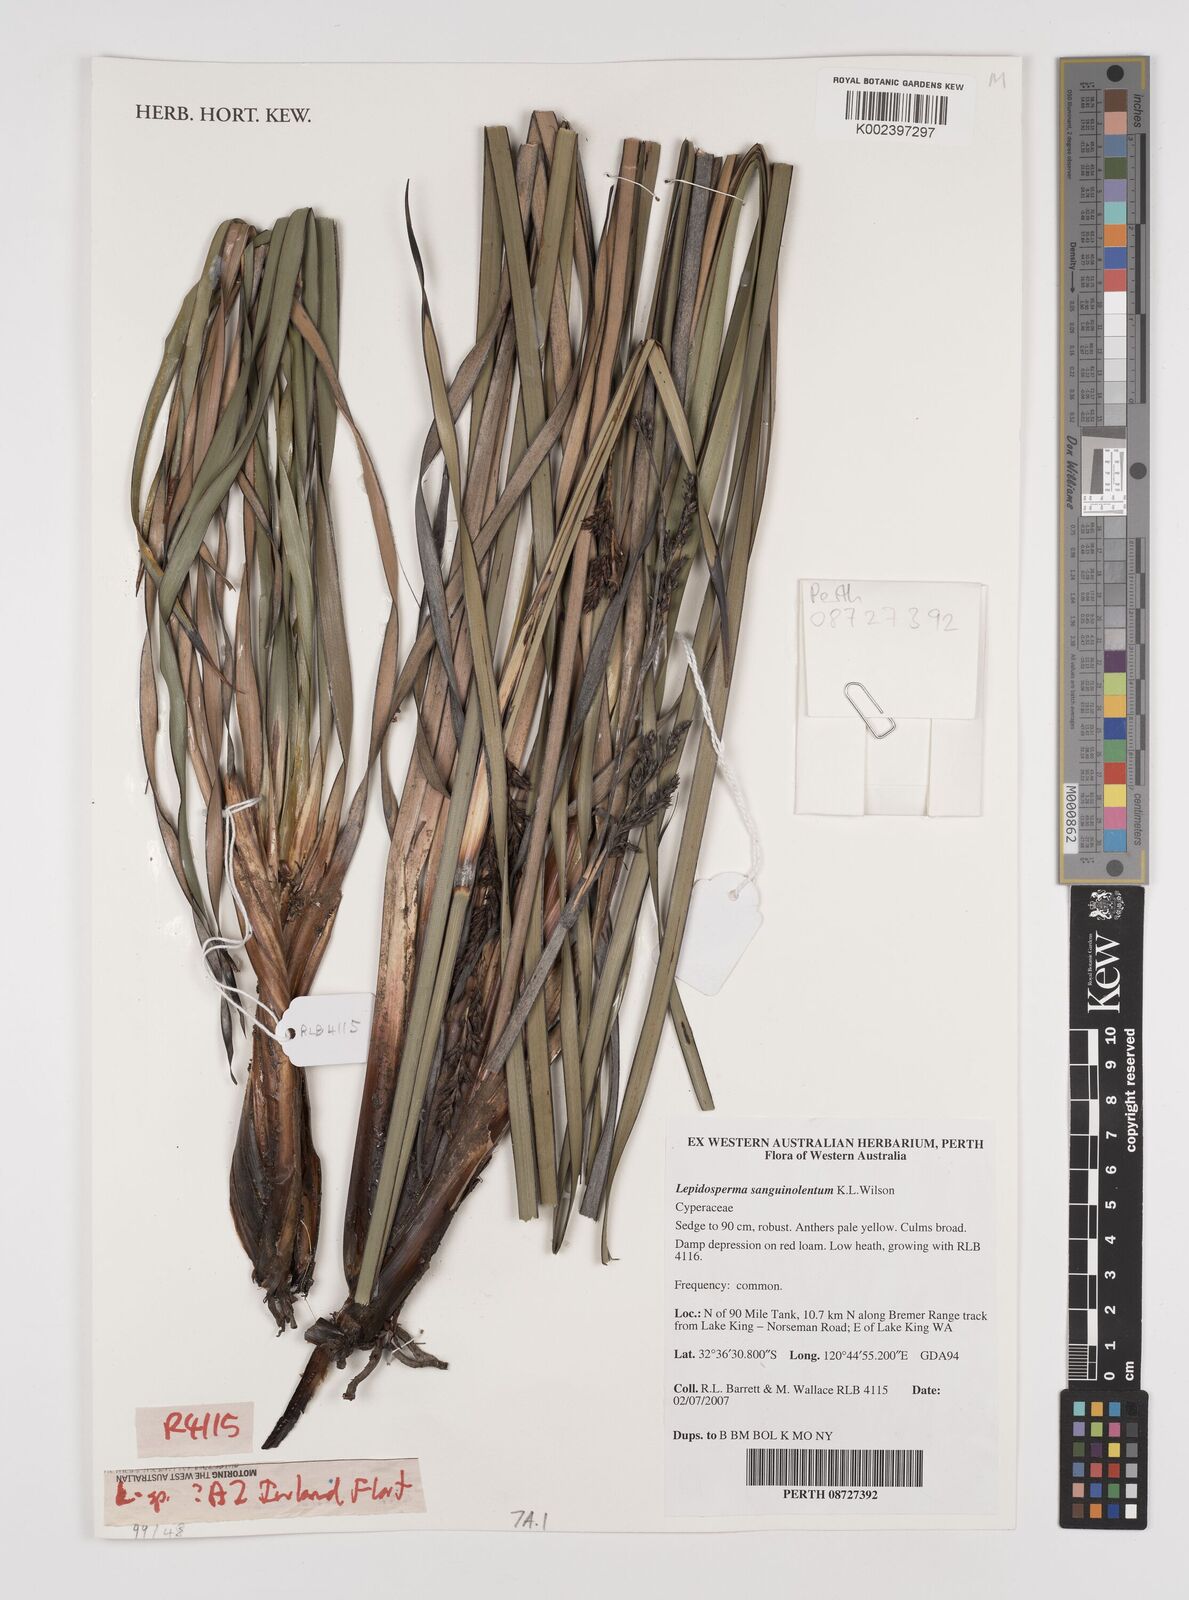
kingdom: Plantae
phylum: Tracheophyta
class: Liliopsida
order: Poales
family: Cyperaceae
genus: Lepidosperma
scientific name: Lepidosperma sanguinolentum
